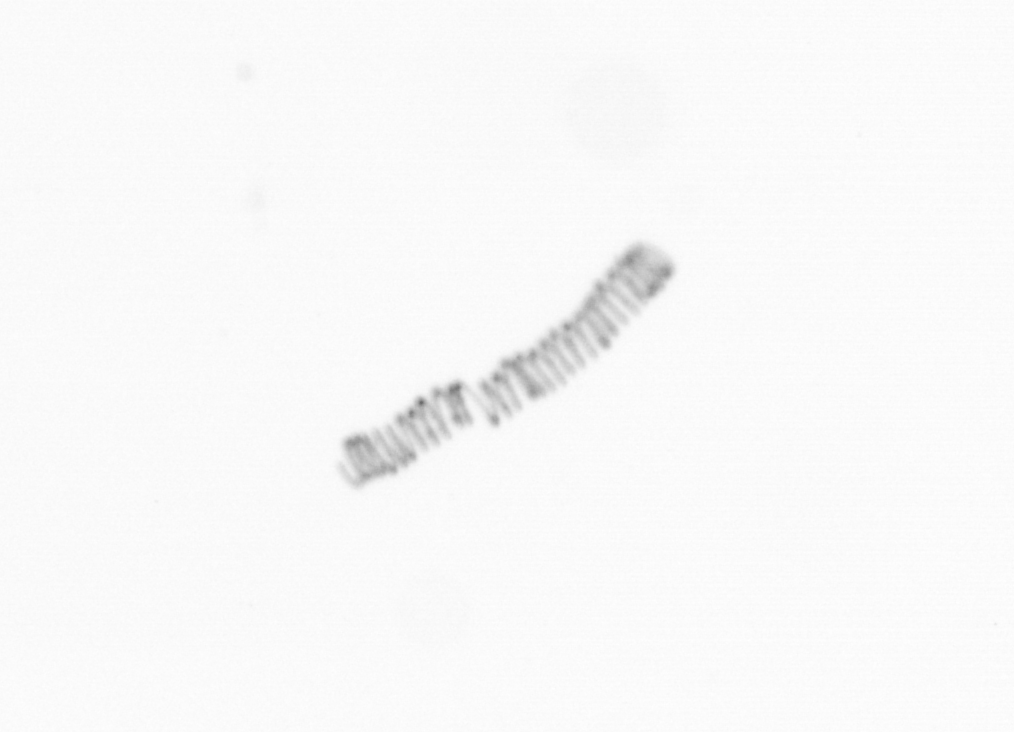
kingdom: Chromista
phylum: Ochrophyta
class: Bacillariophyceae
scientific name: Bacillariophyceae
